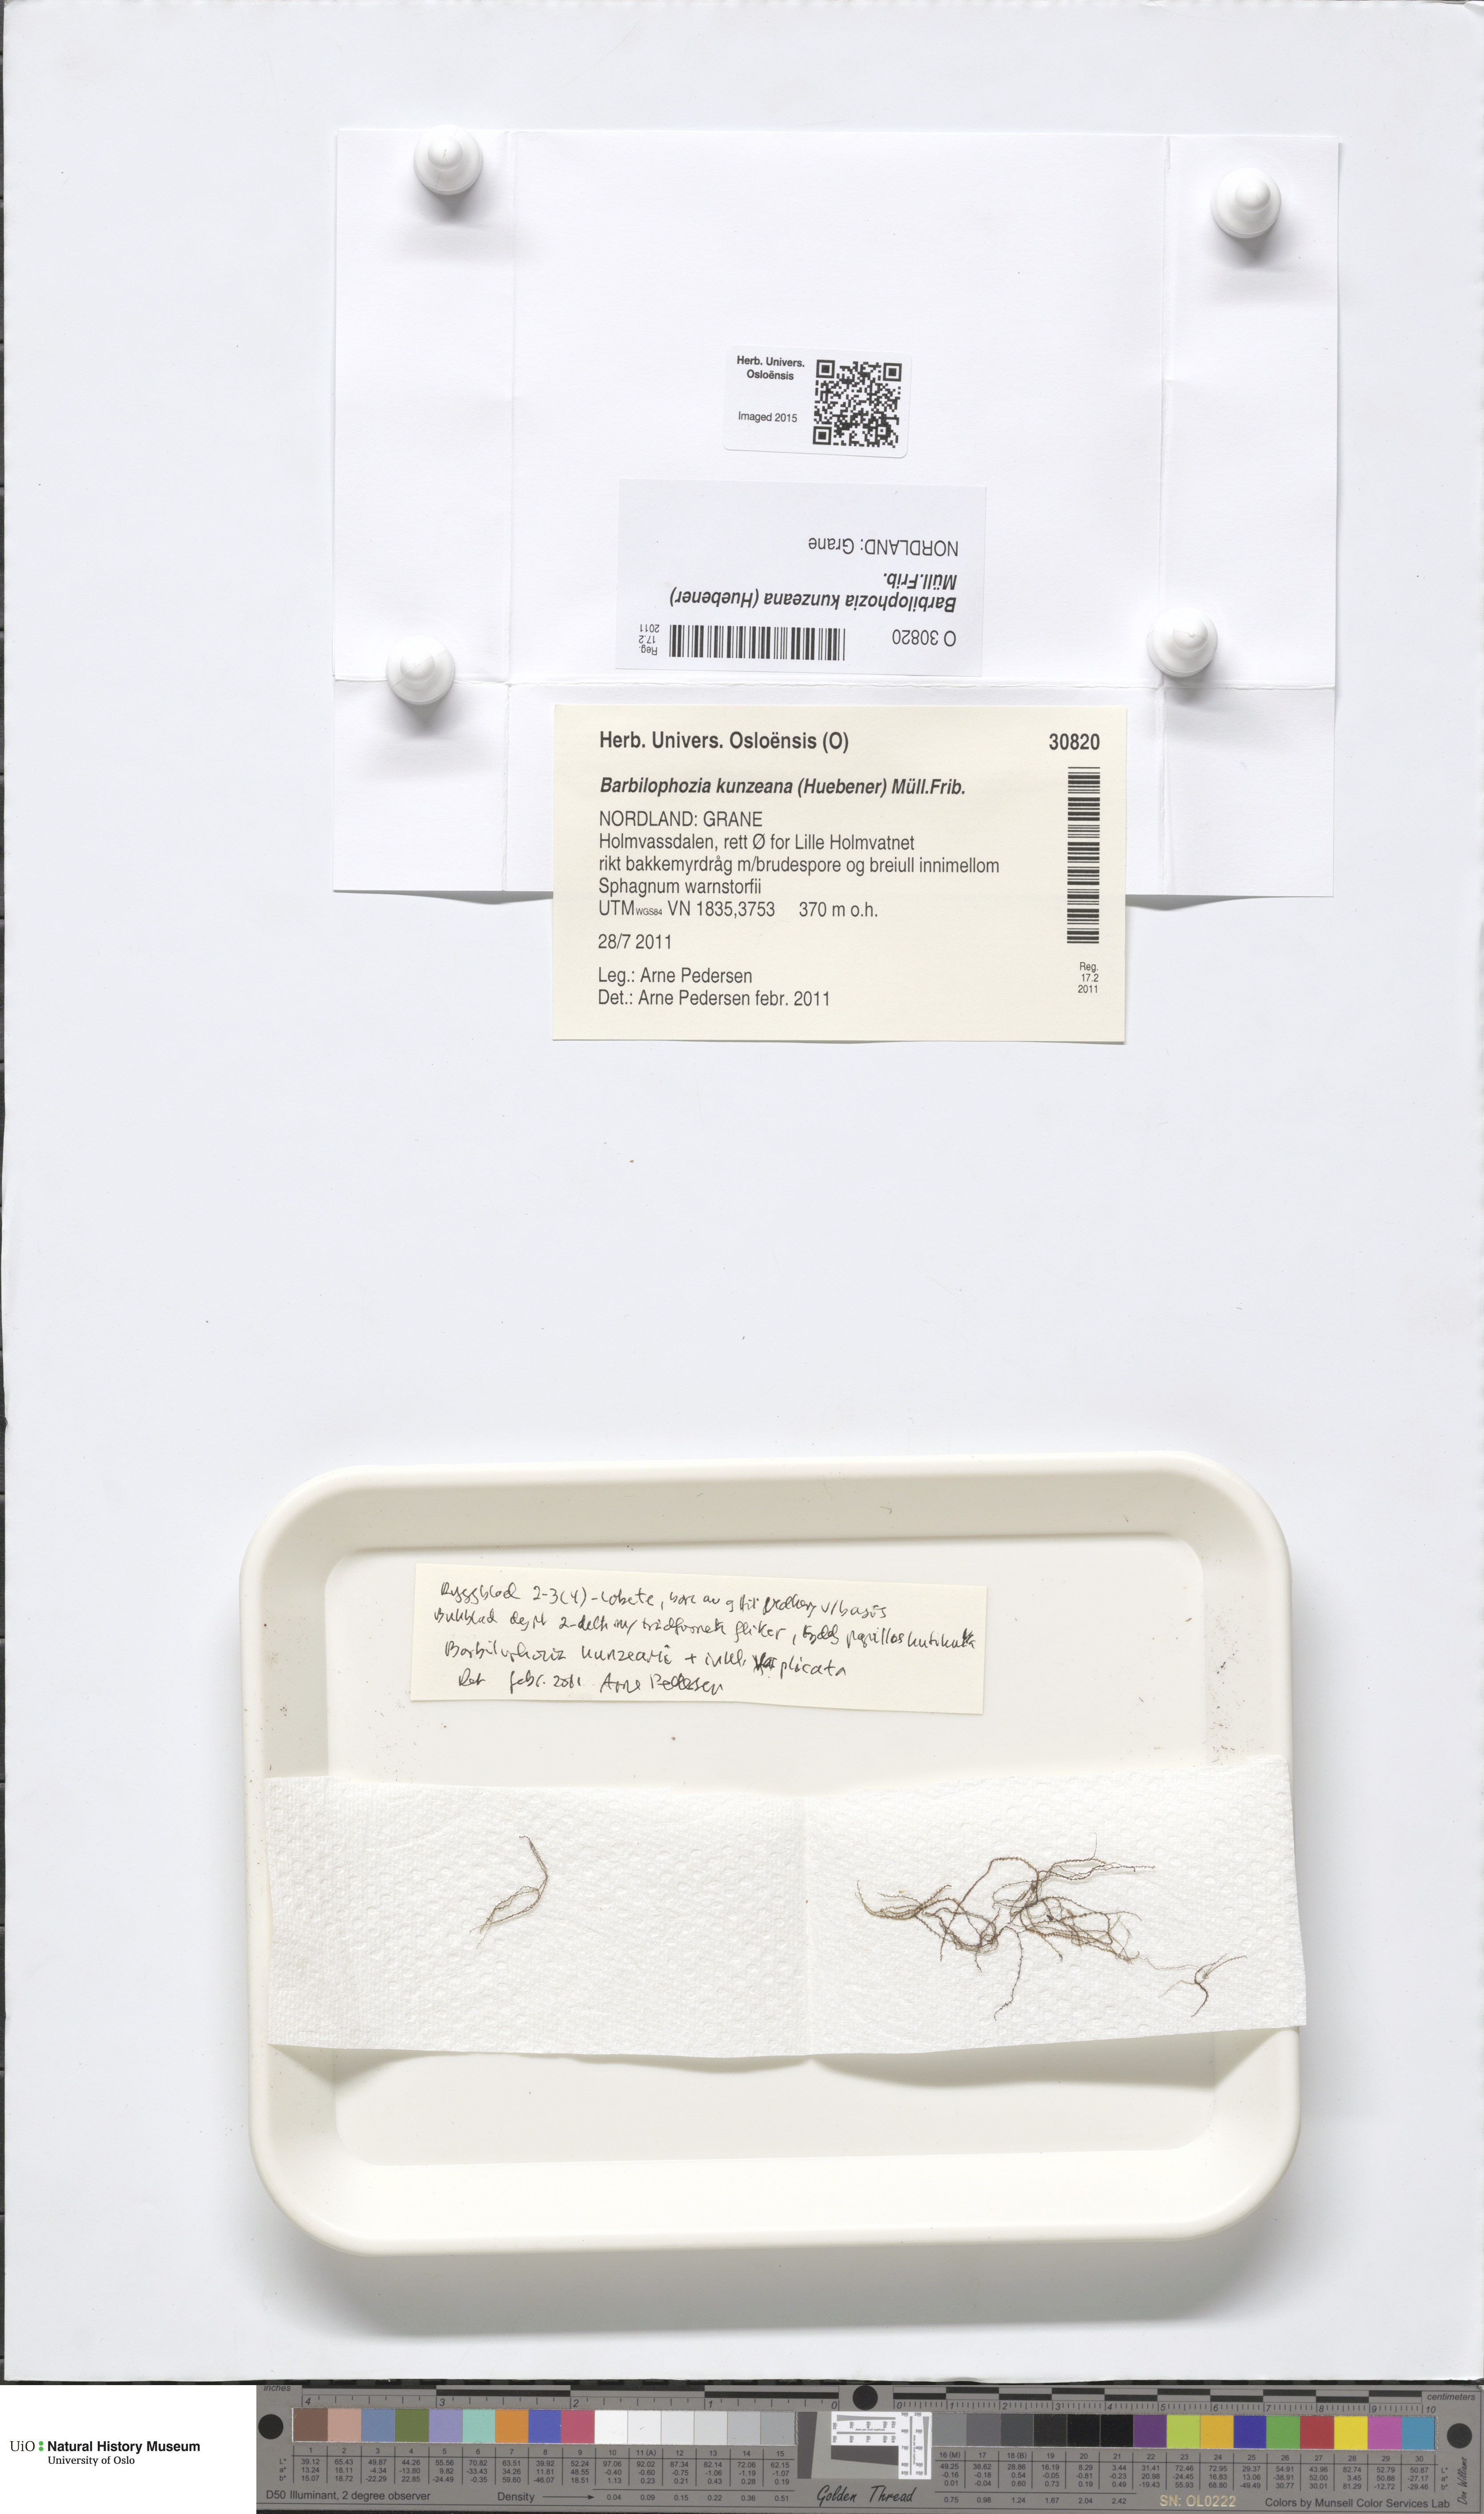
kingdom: Plantae
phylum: Marchantiophyta
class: Jungermanniopsida
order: Jungermanniales
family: Anastrophyllaceae
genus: Schljakovia
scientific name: Schljakovia kunzeana
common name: Kunze's pawwort
